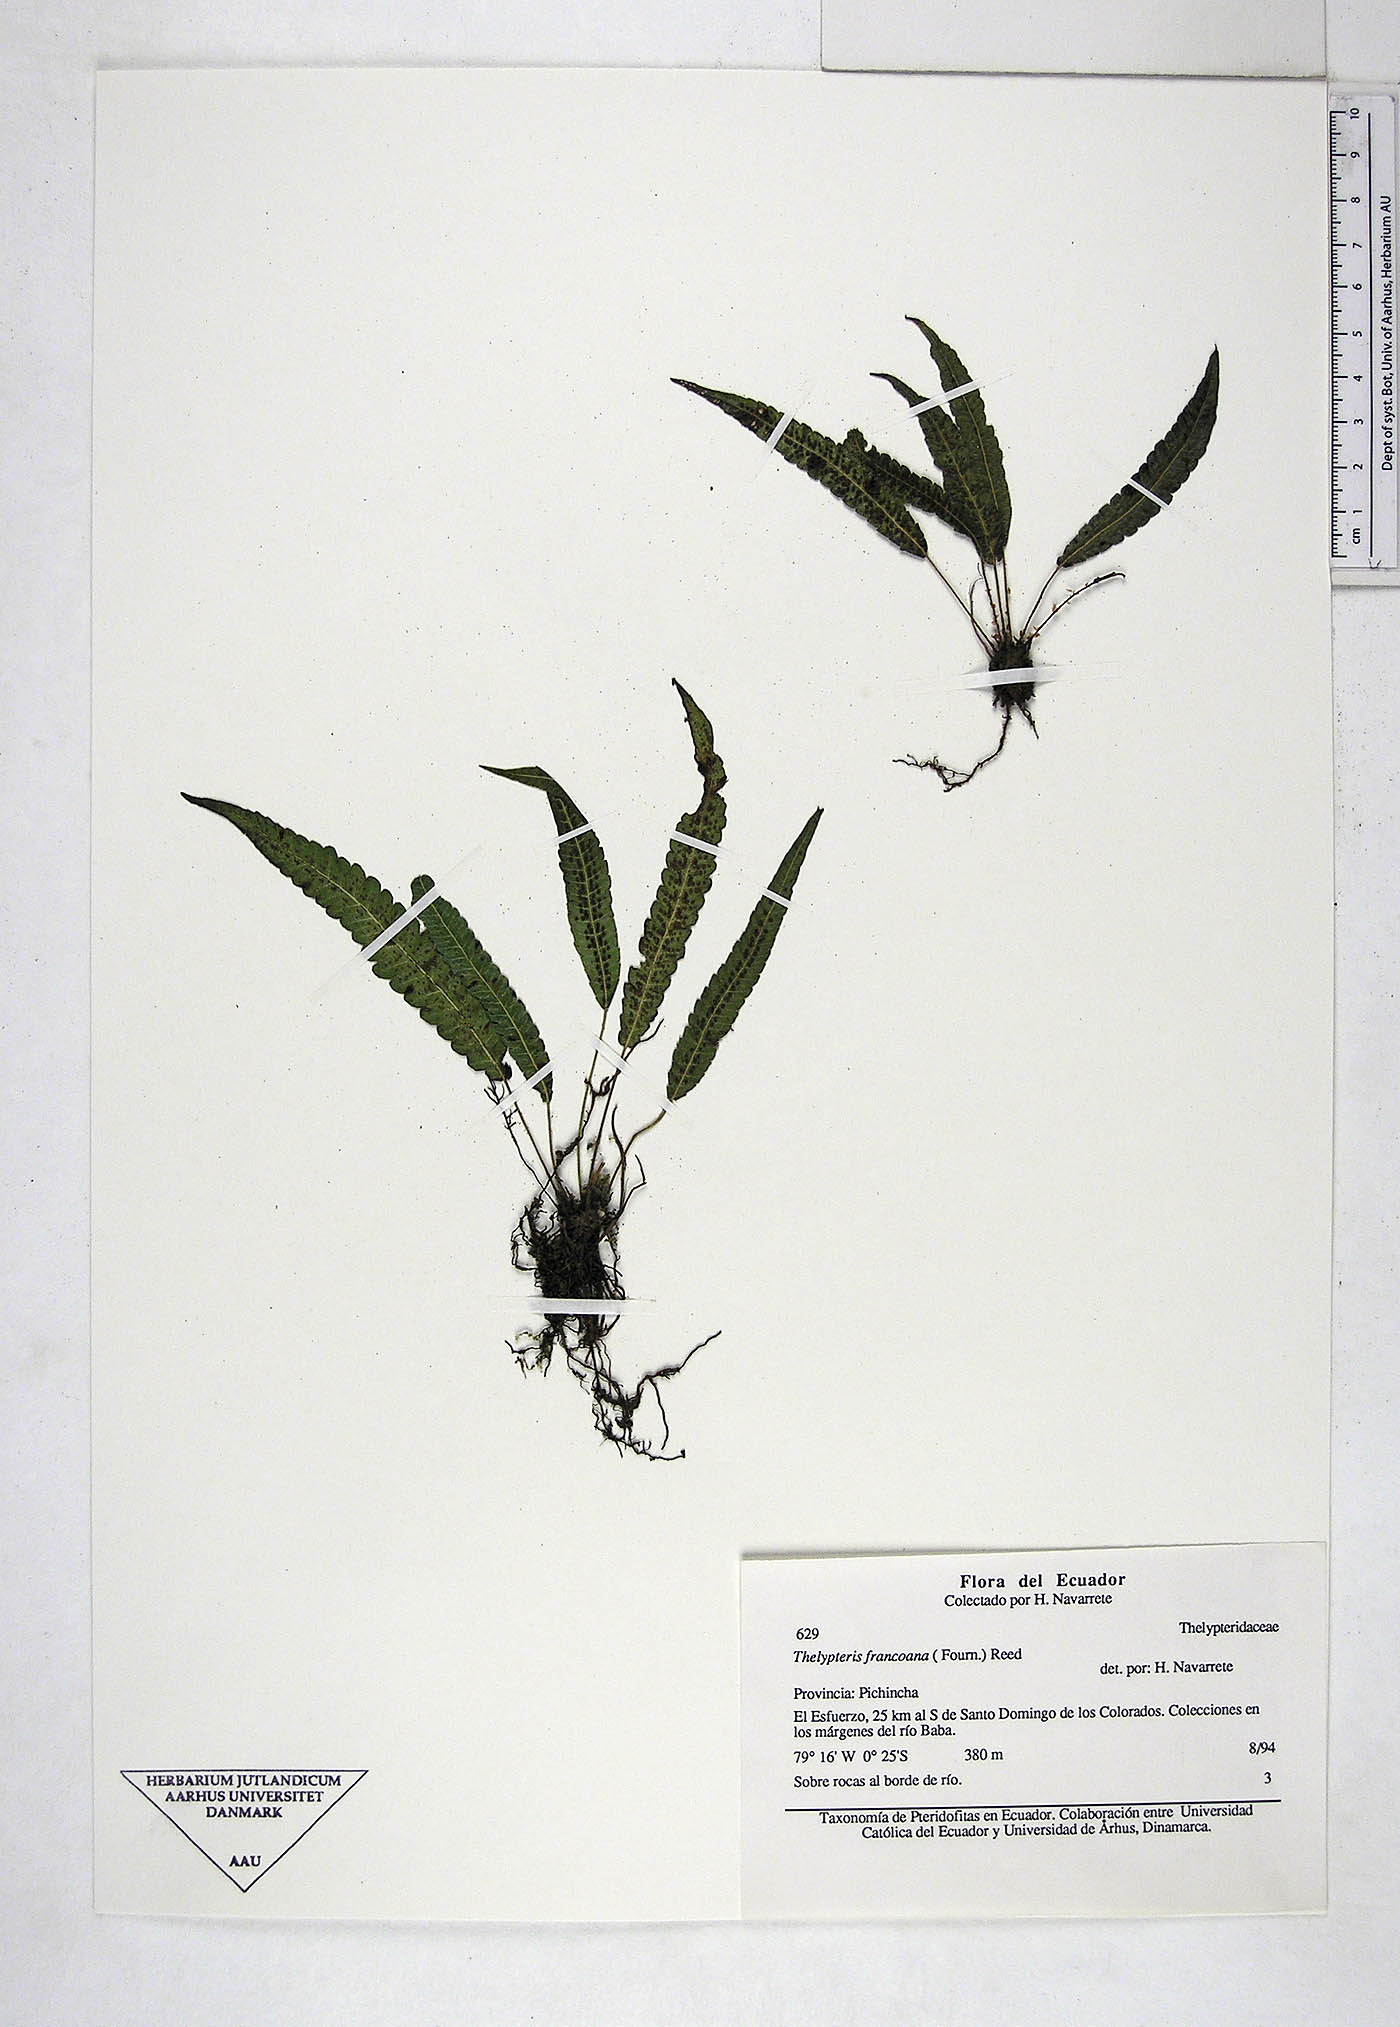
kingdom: Plantae
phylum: Tracheophyta
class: Polypodiopsida
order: Polypodiales
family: Thelypteridaceae
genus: Goniopteris
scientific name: Goniopteris francoana
